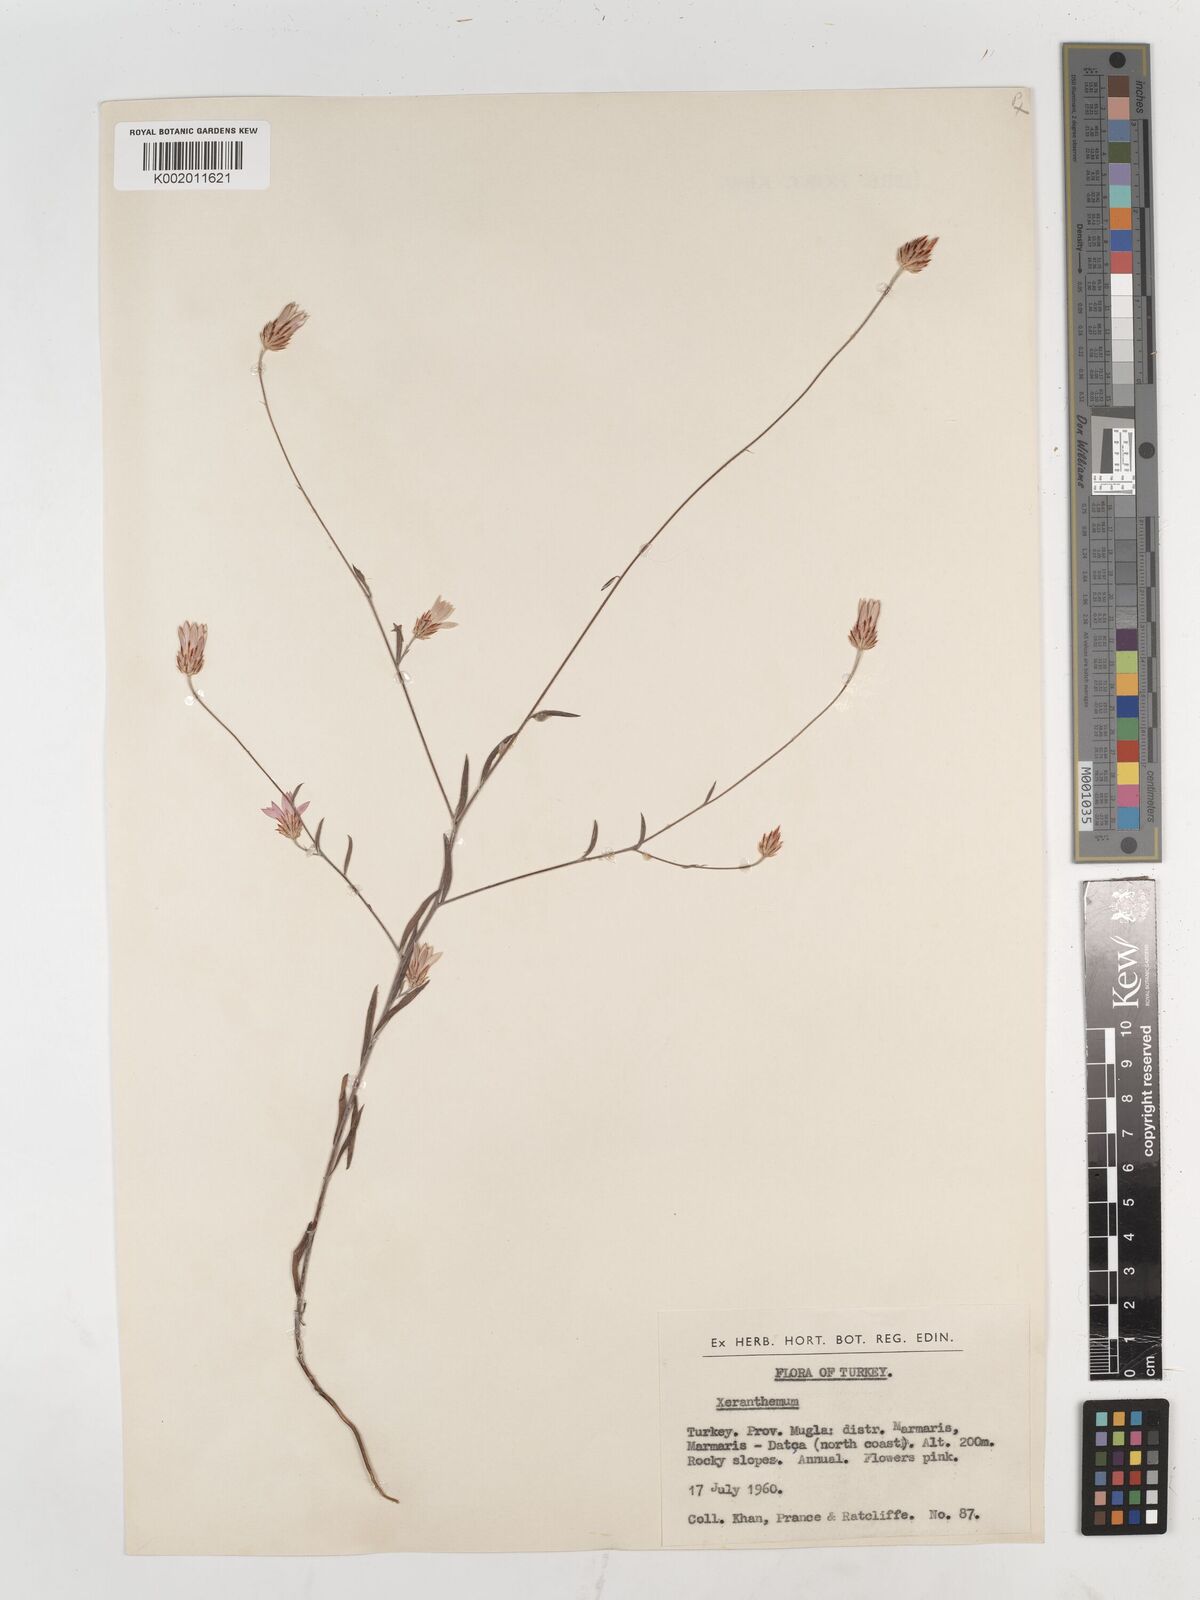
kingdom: Plantae
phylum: Tracheophyta
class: Magnoliopsida
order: Asterales
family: Asteraceae
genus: Xeranthemum
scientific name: Xeranthemum annuum
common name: Immortelle
